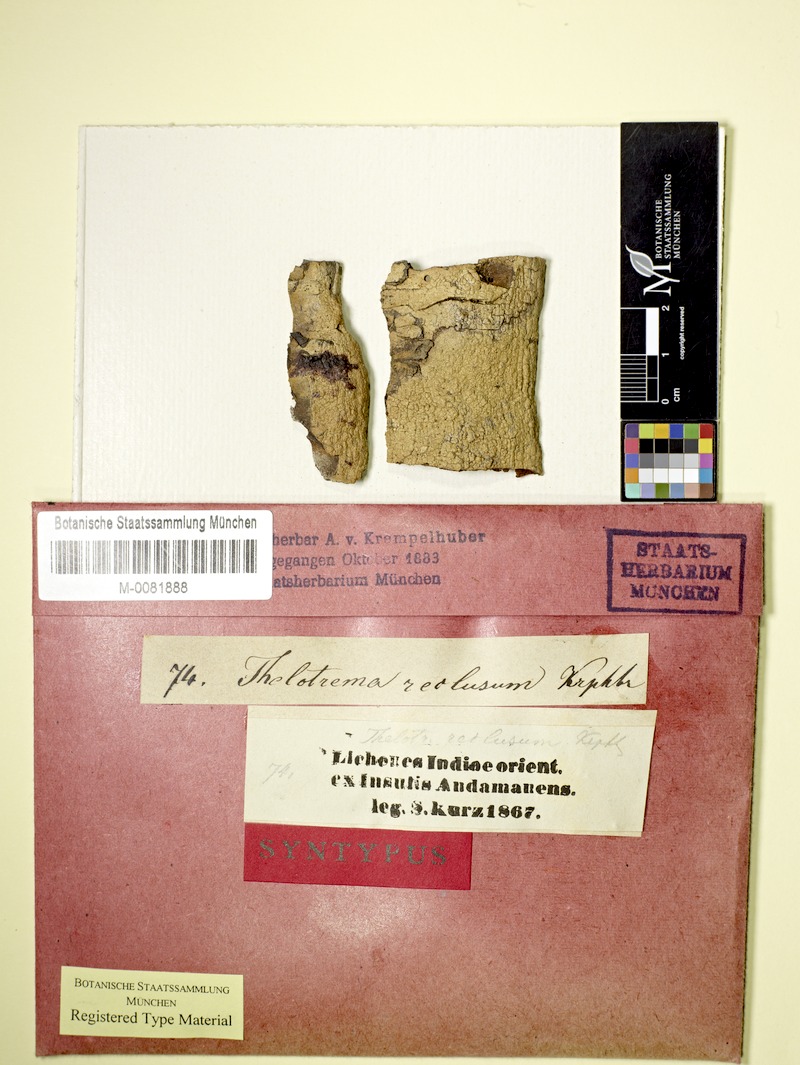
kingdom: Fungi
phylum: Ascomycota
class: Lecanoromycetes
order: Ostropales
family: Graphidaceae
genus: Leucodecton
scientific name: Leucodecton compunctellum
